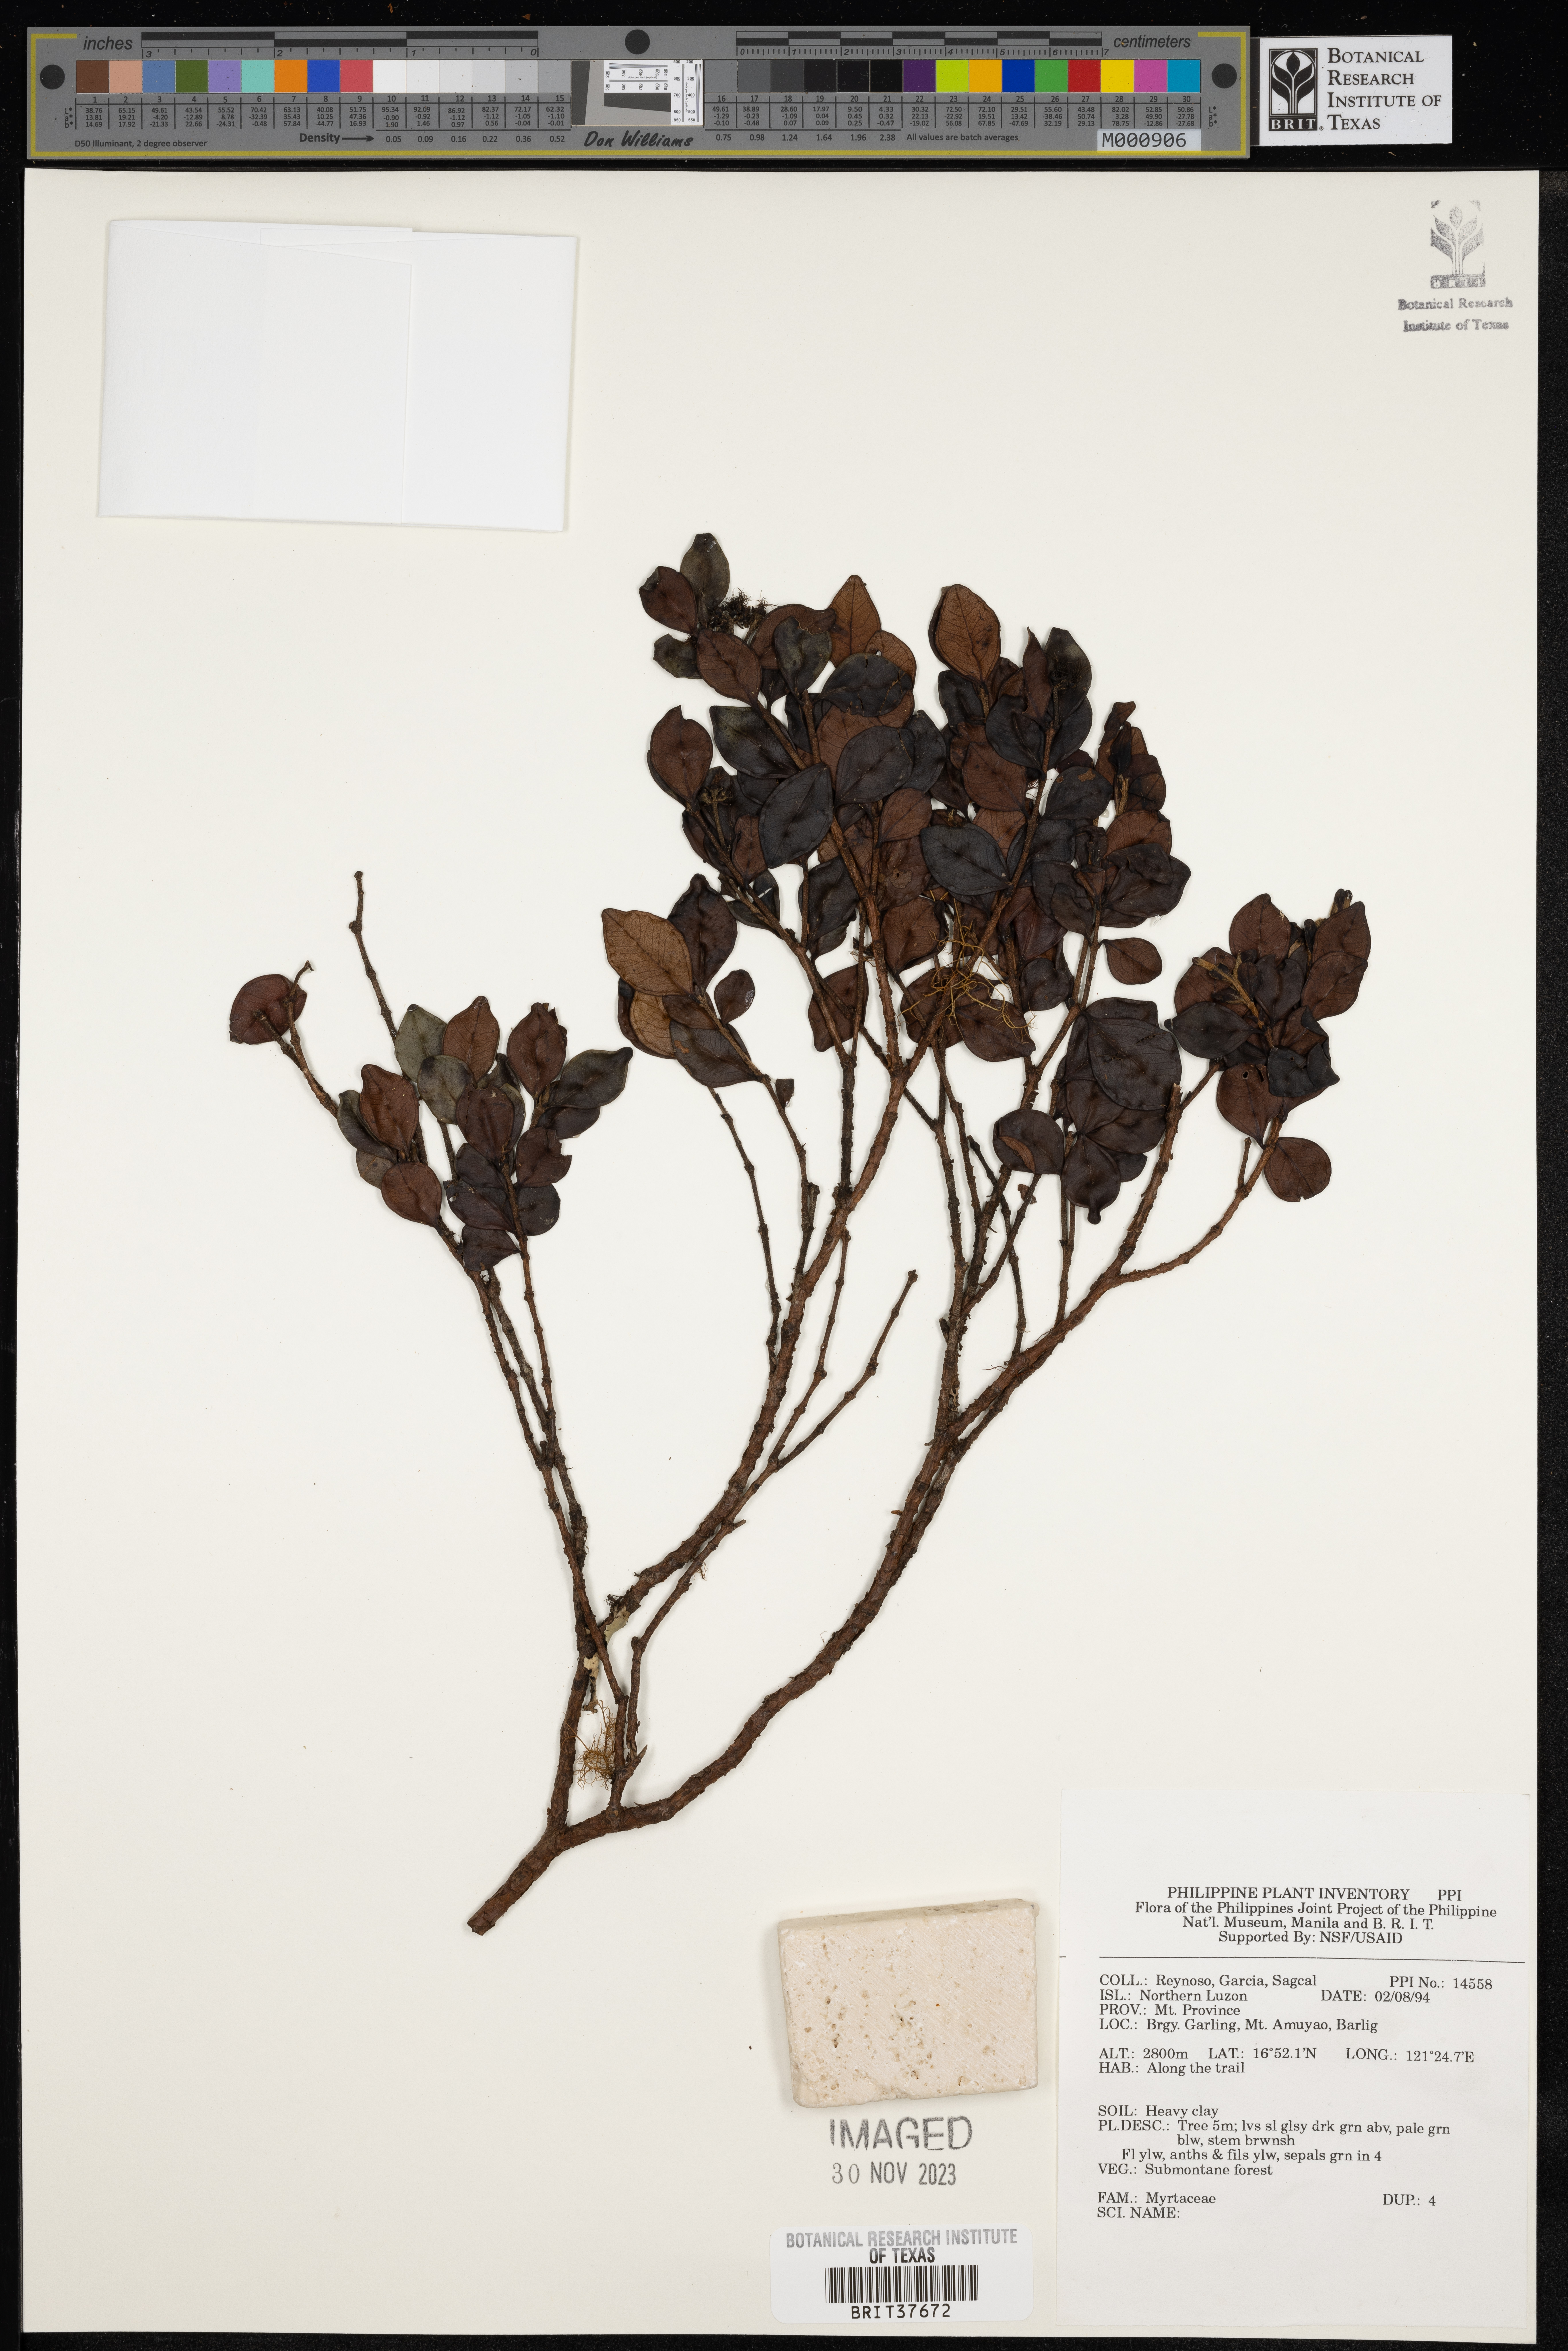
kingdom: Plantae
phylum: Tracheophyta
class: Magnoliopsida
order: Myrtales
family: Myrtaceae
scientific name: Myrtaceae
